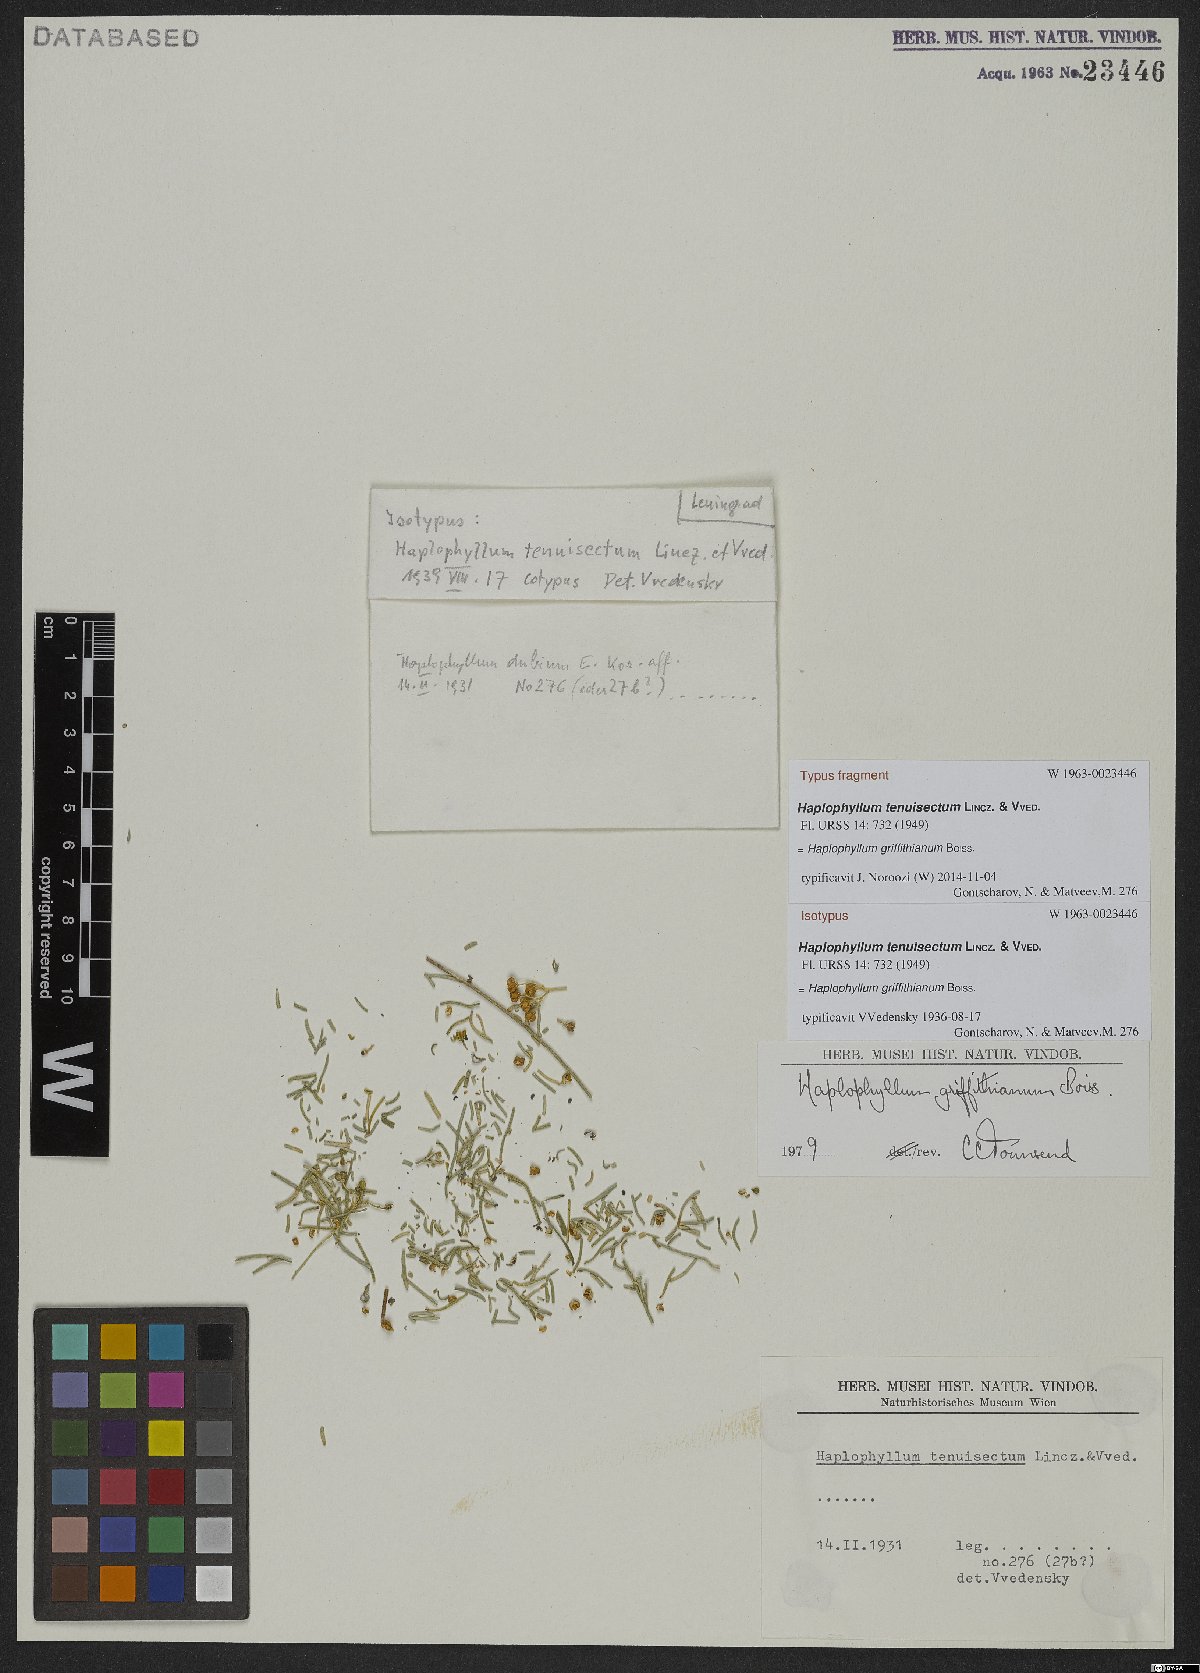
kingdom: Plantae
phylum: Tracheophyta
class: Magnoliopsida
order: Sapindales
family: Rutaceae
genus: Haplophyllum
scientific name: Haplophyllum griffithianum
